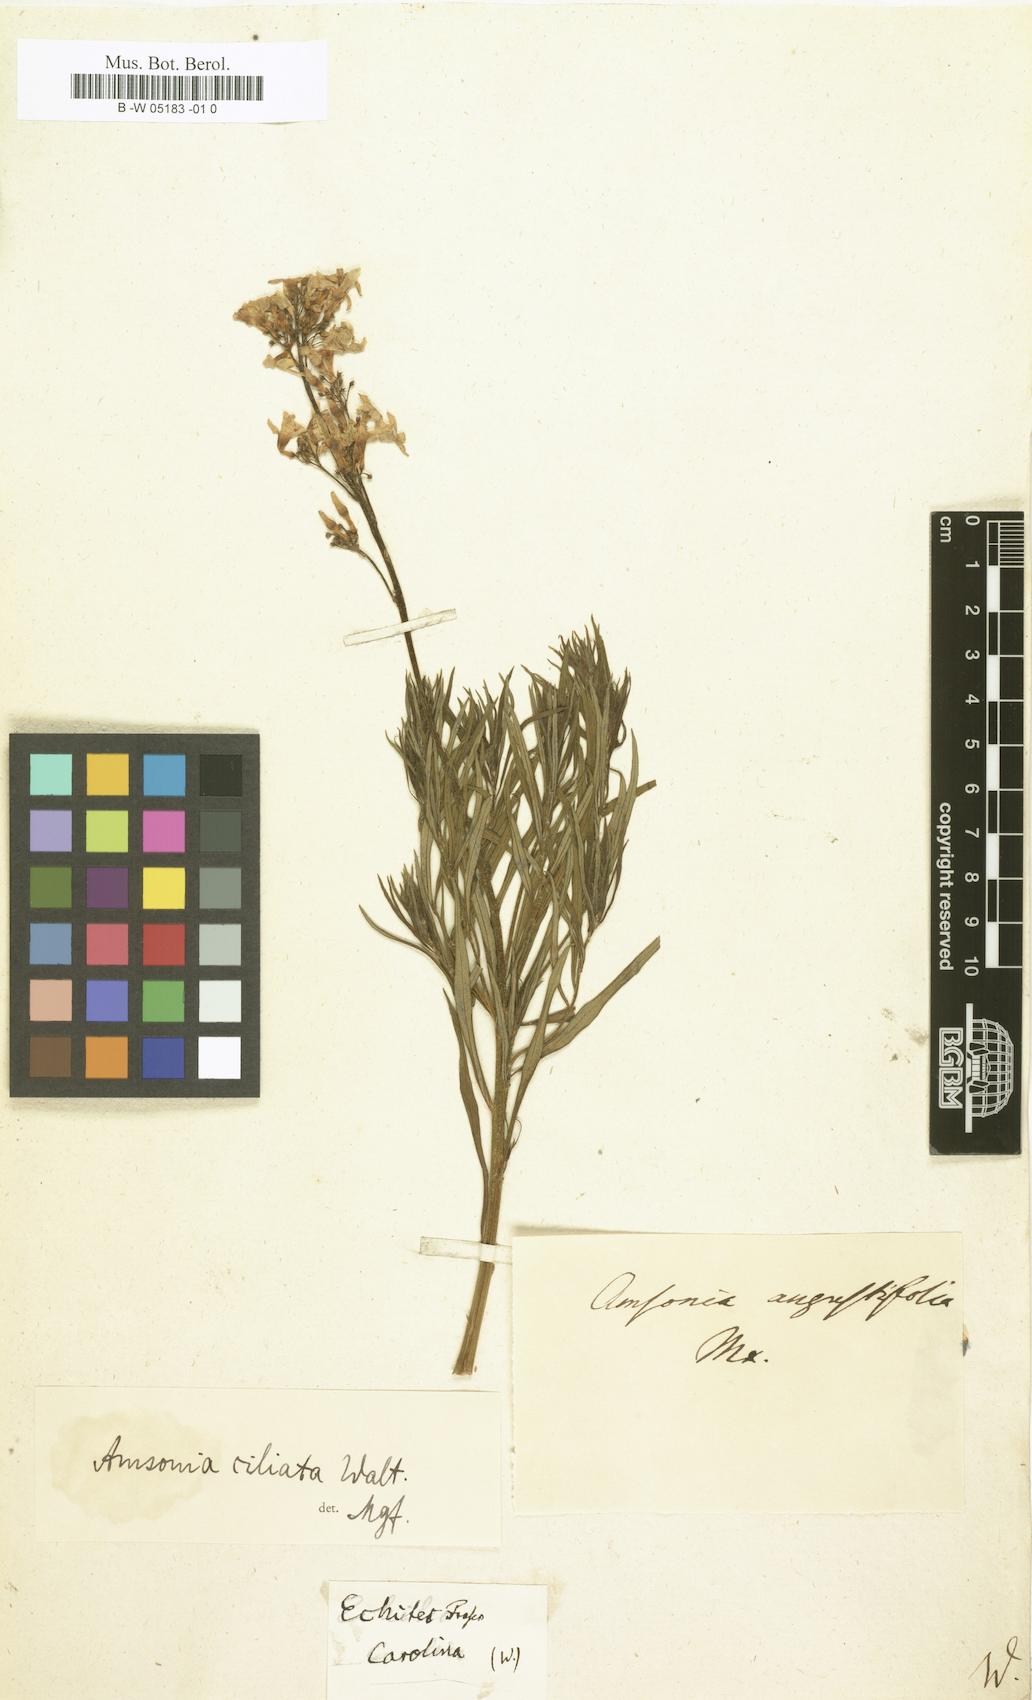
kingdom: Plantae
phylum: Tracheophyta
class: Magnoliopsida
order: Gentianales
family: Apocynaceae
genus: Amsonia
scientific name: Amsonia ciliata
